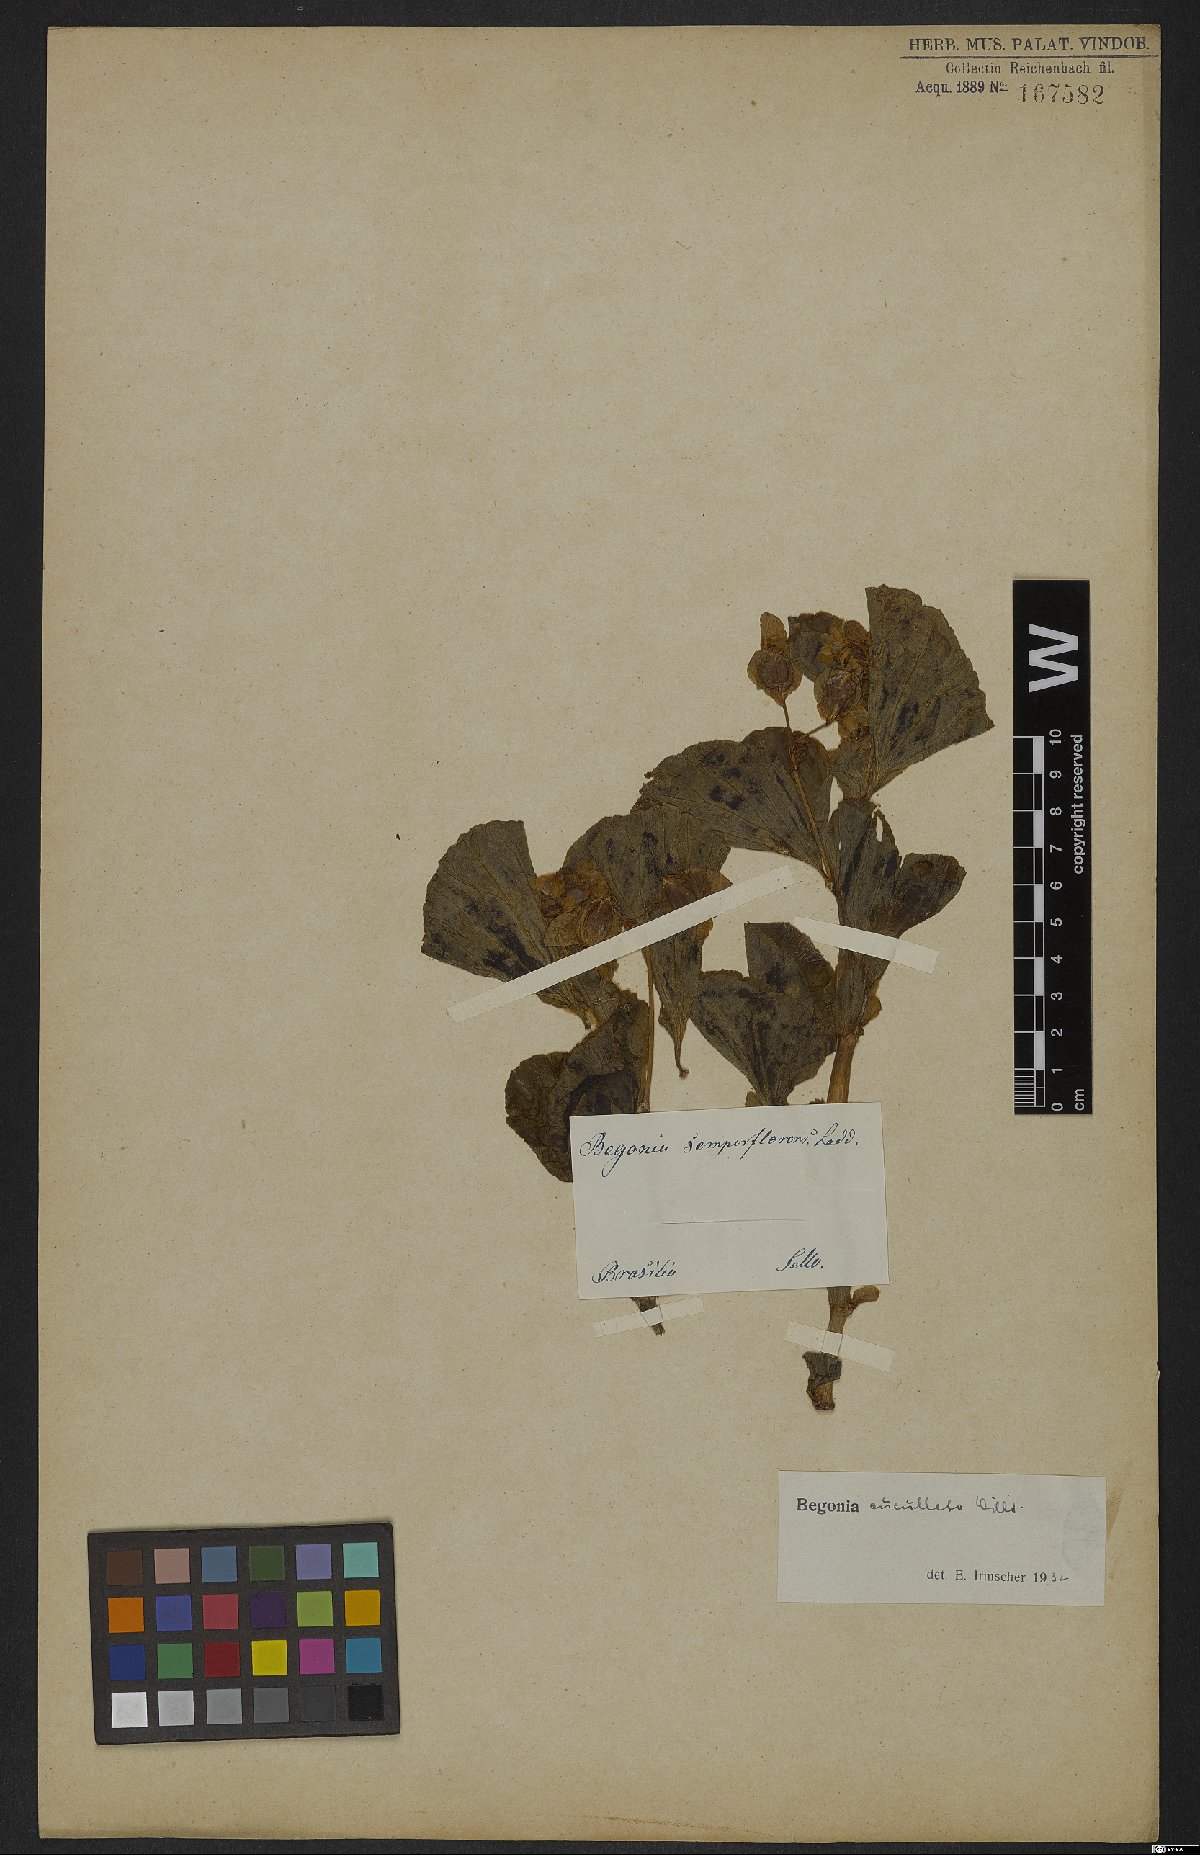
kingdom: Plantae
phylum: Tracheophyta
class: Magnoliopsida
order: Cucurbitales
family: Begoniaceae
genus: Begonia
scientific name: Begonia cucullata
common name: Clubbed begonia
